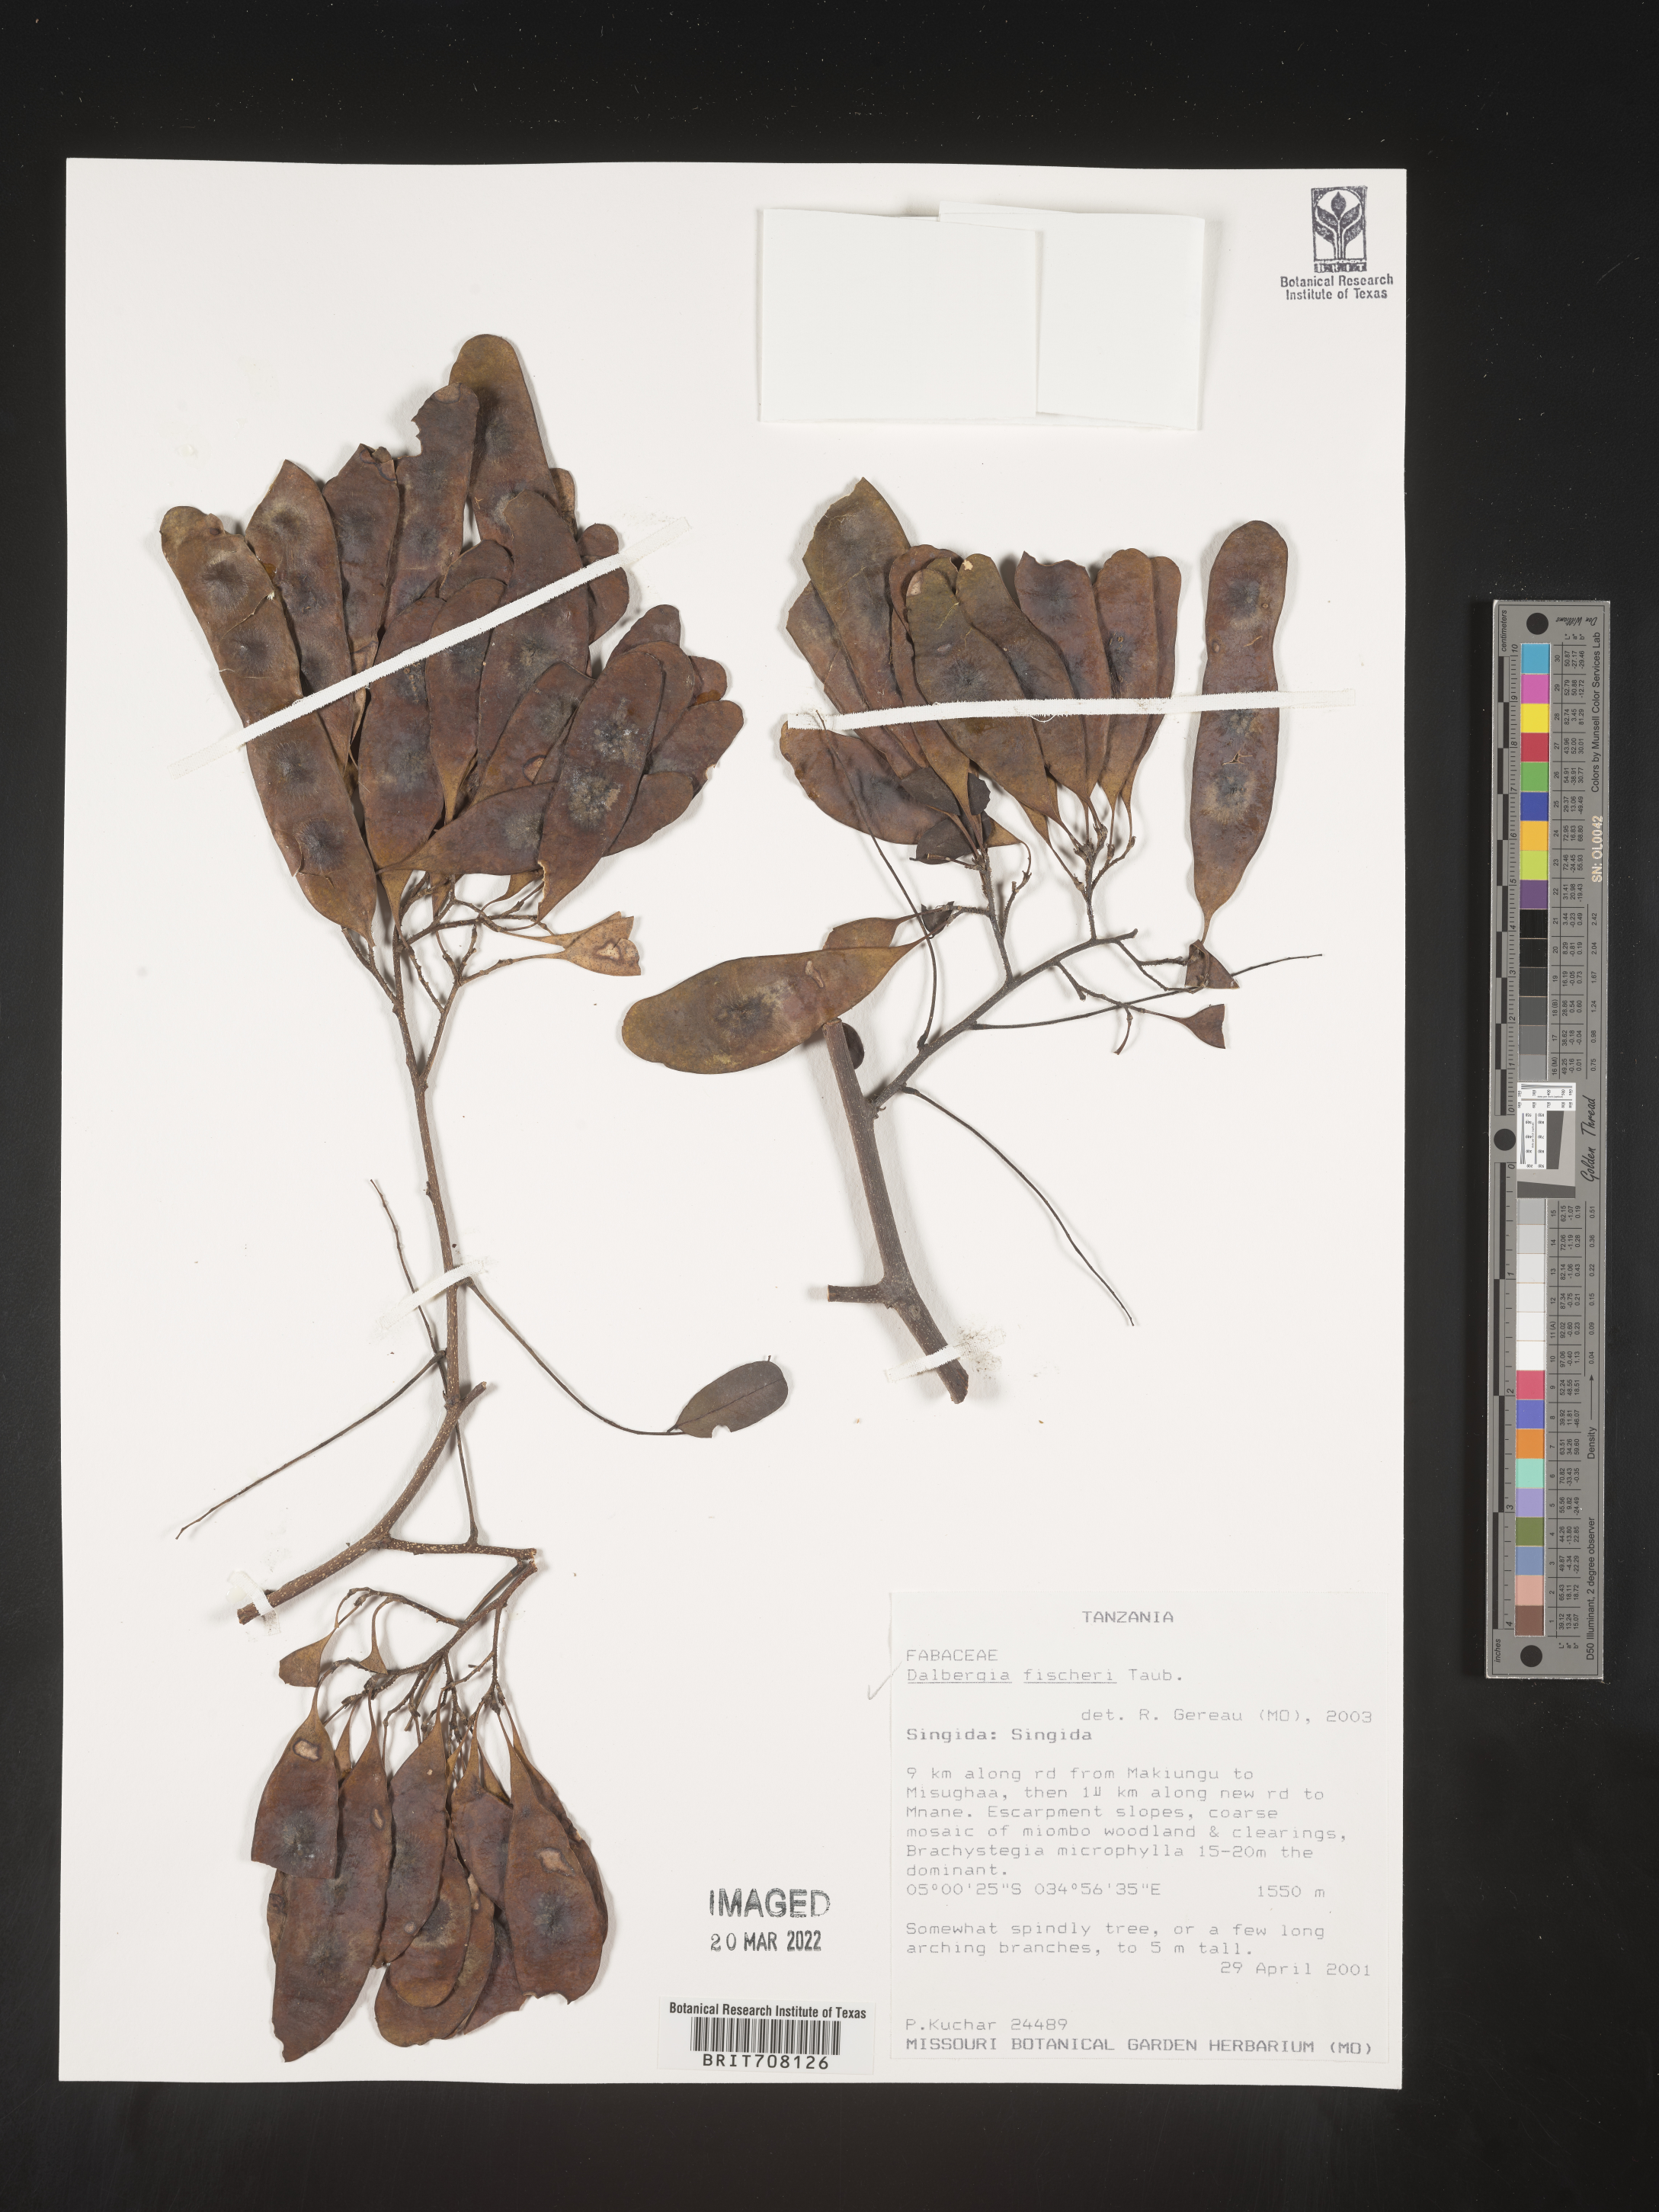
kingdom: Plantae
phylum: Tracheophyta
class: Magnoliopsida
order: Fabales
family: Fabaceae
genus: Dalbergia
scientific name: Dalbergia
